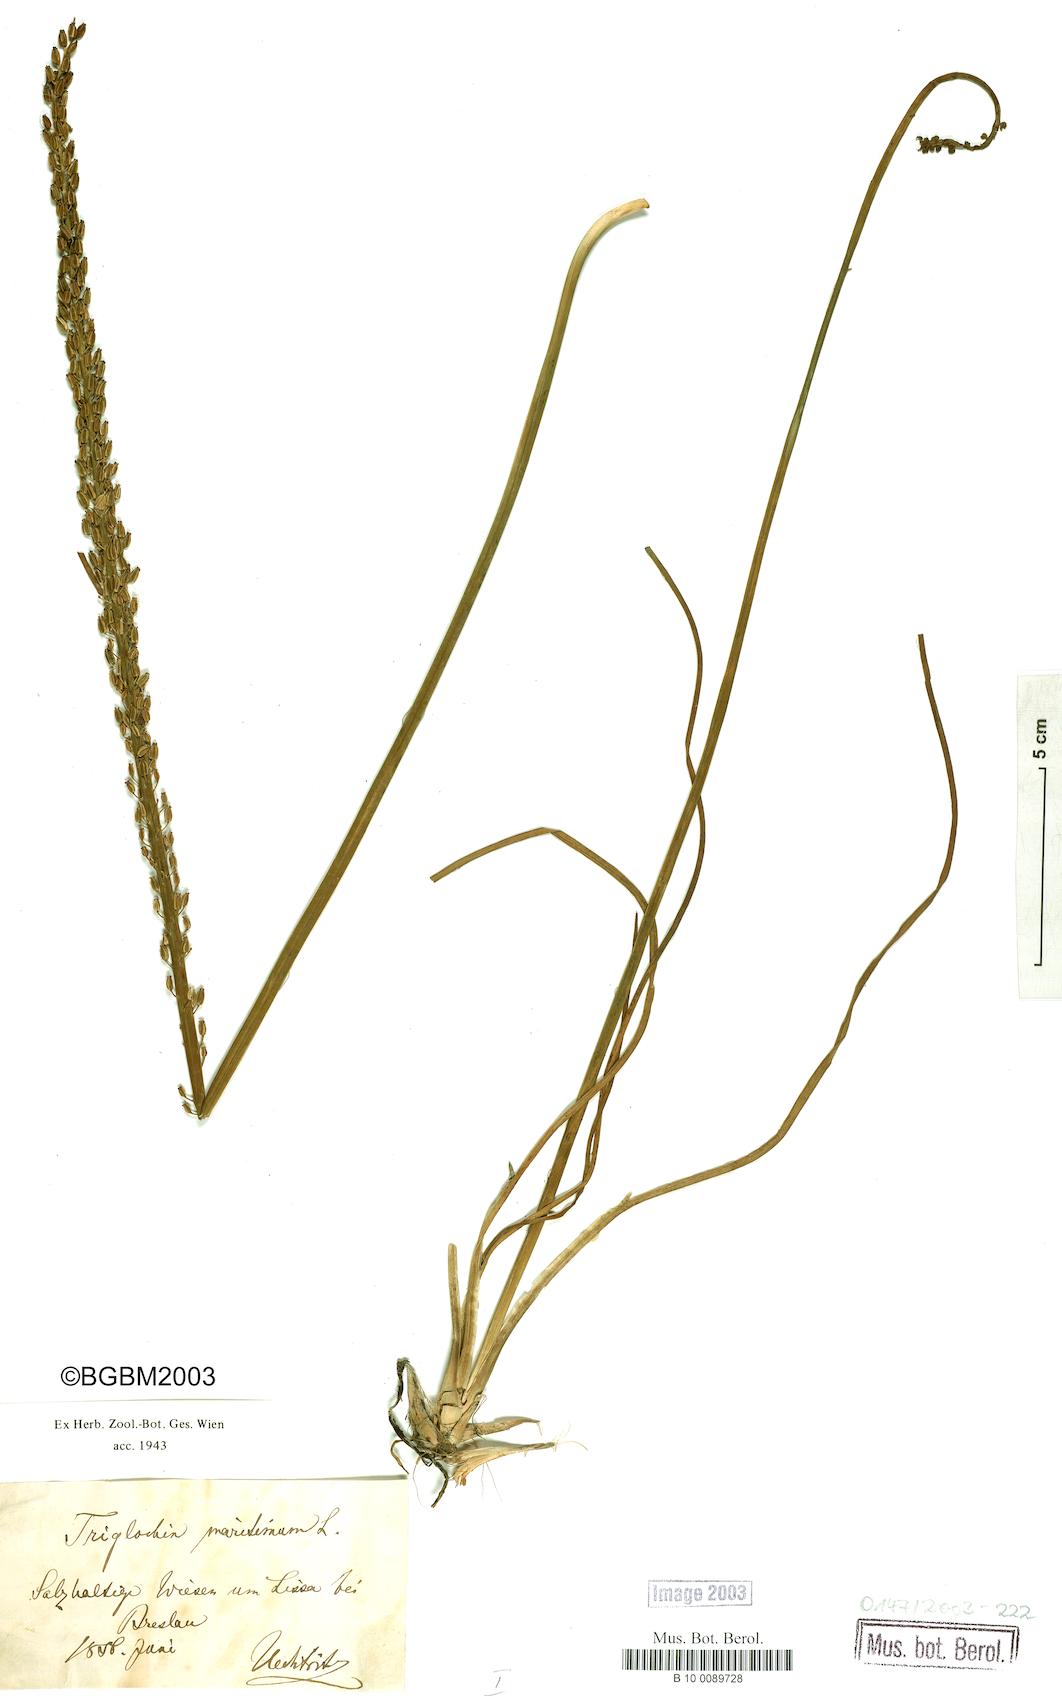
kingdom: Plantae
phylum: Tracheophyta
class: Liliopsida
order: Alismatales
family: Juncaginaceae
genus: Triglochin
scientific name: Triglochin maritima
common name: Sea arrowgrass
